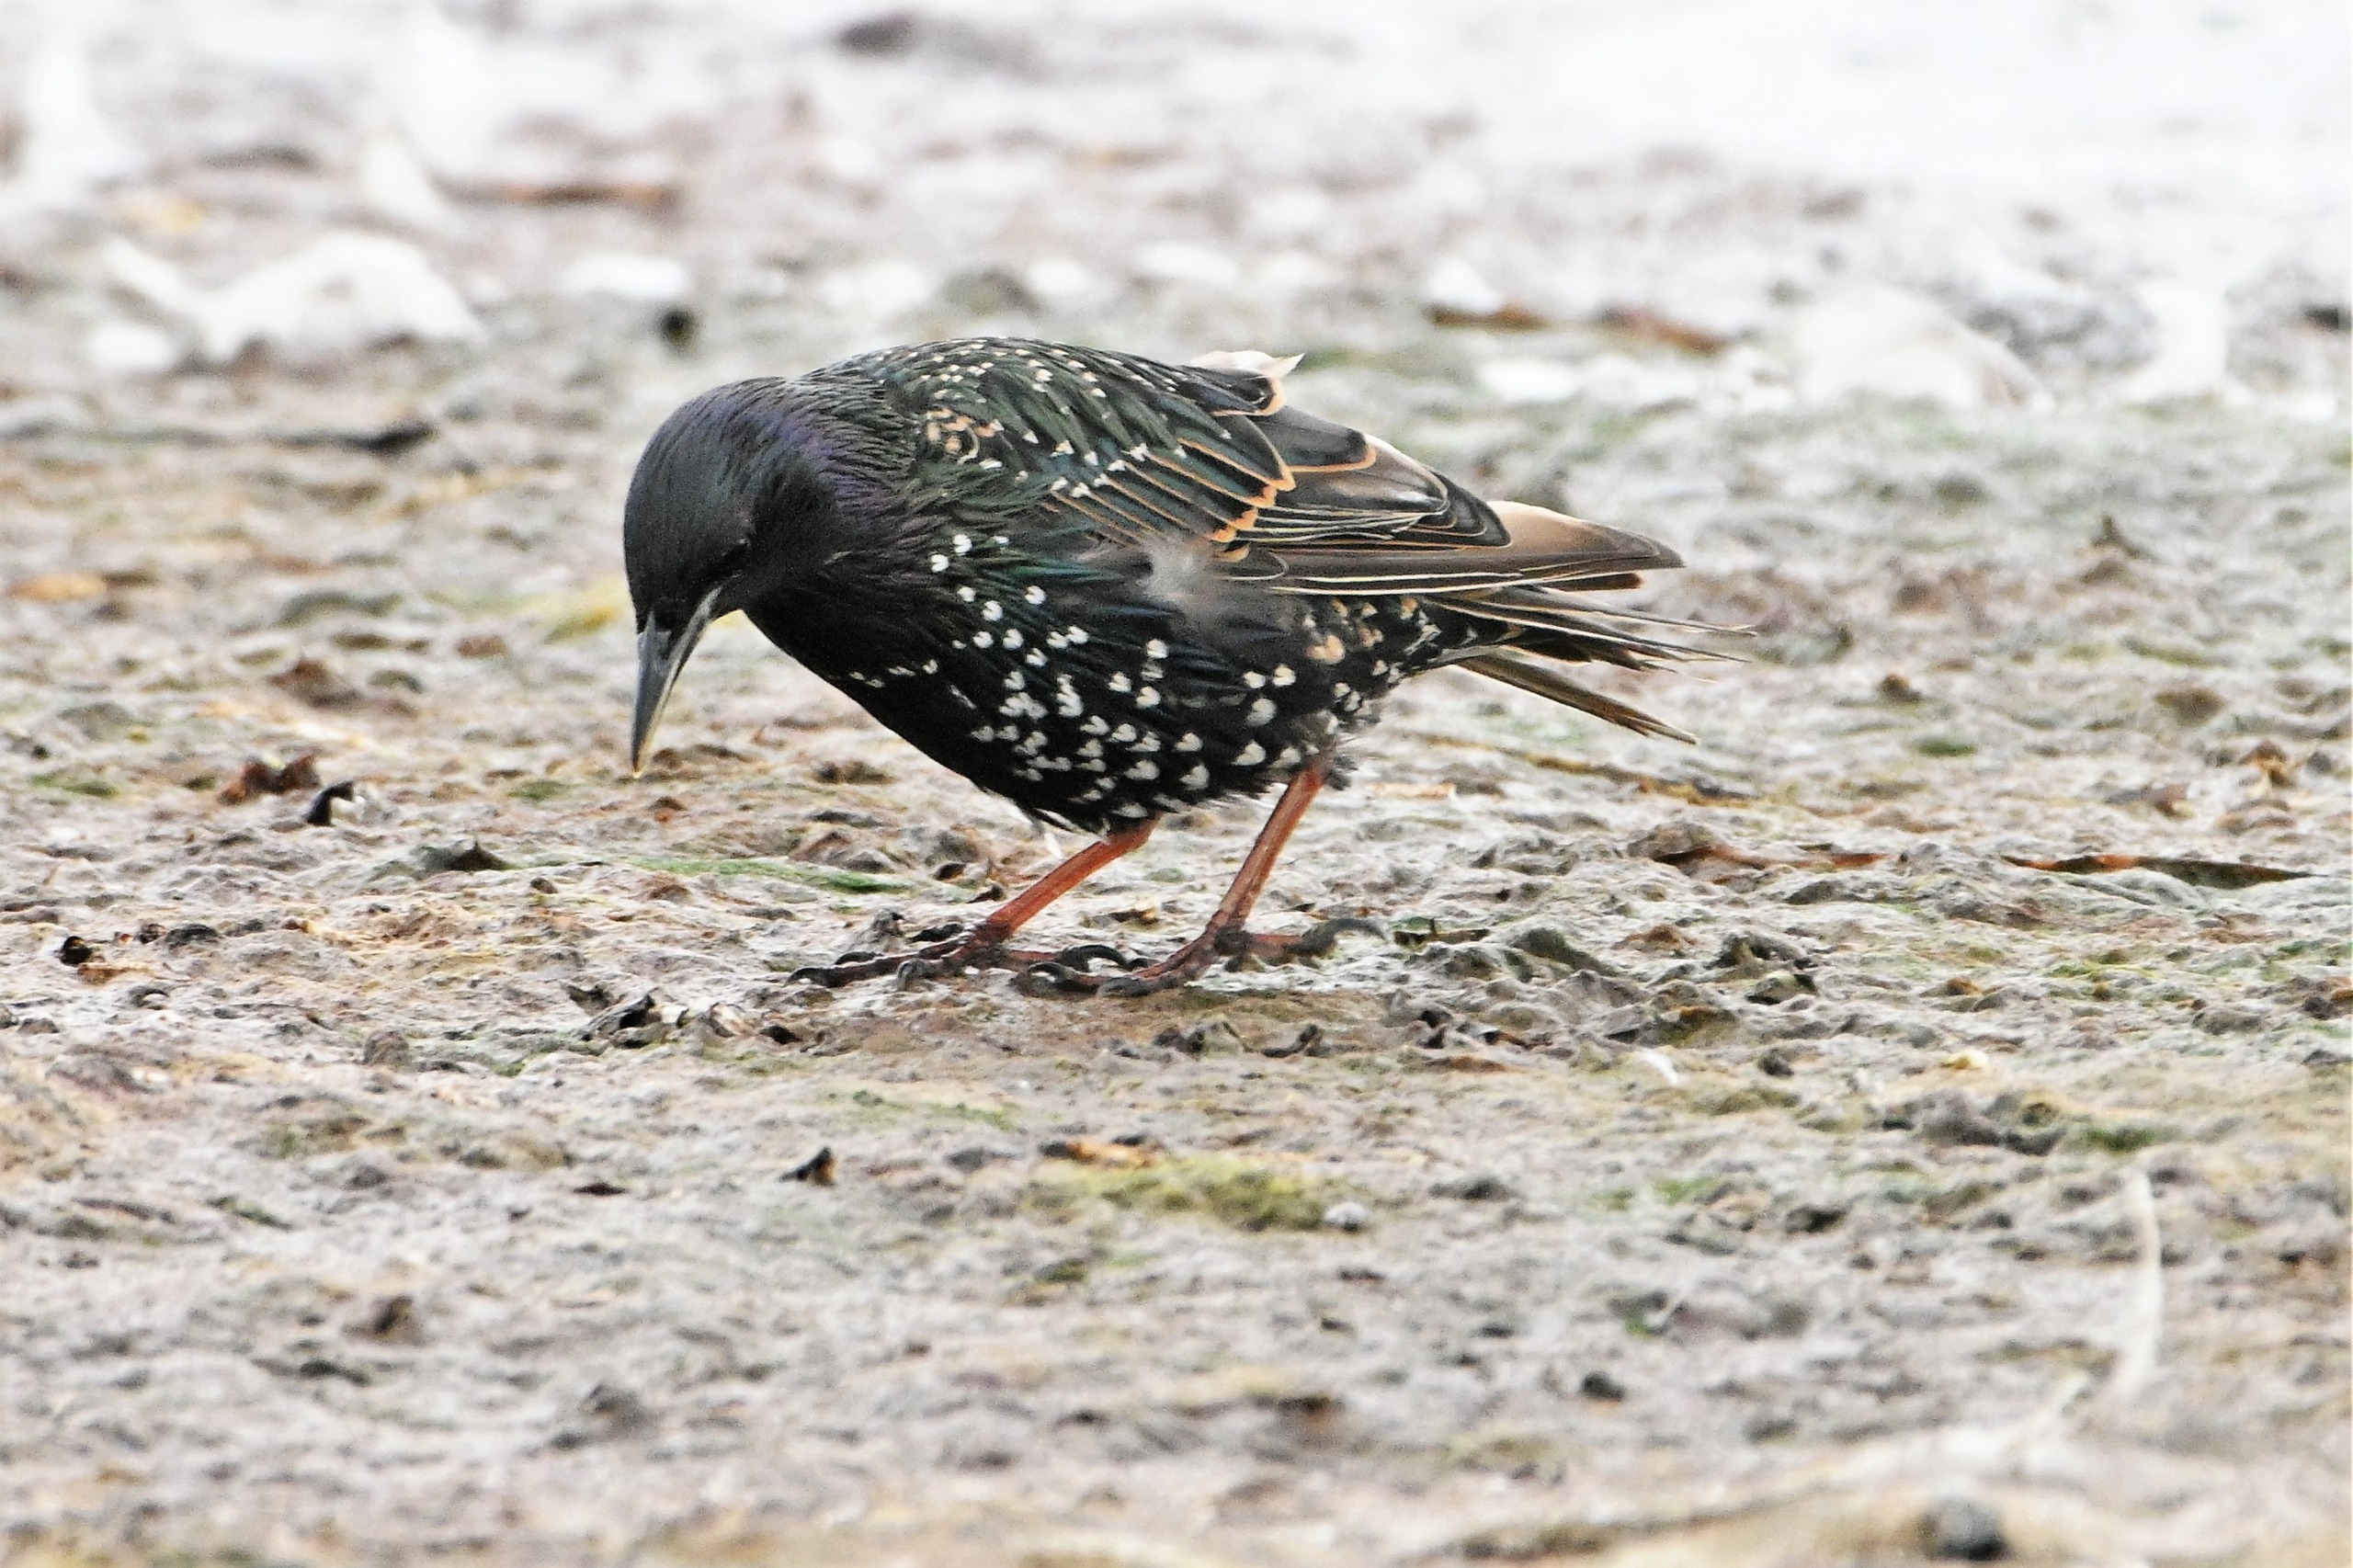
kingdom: Animalia
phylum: Chordata
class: Aves
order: Passeriformes
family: Sturnidae
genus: Sturnus
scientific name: Sturnus vulgaris
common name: Stær
